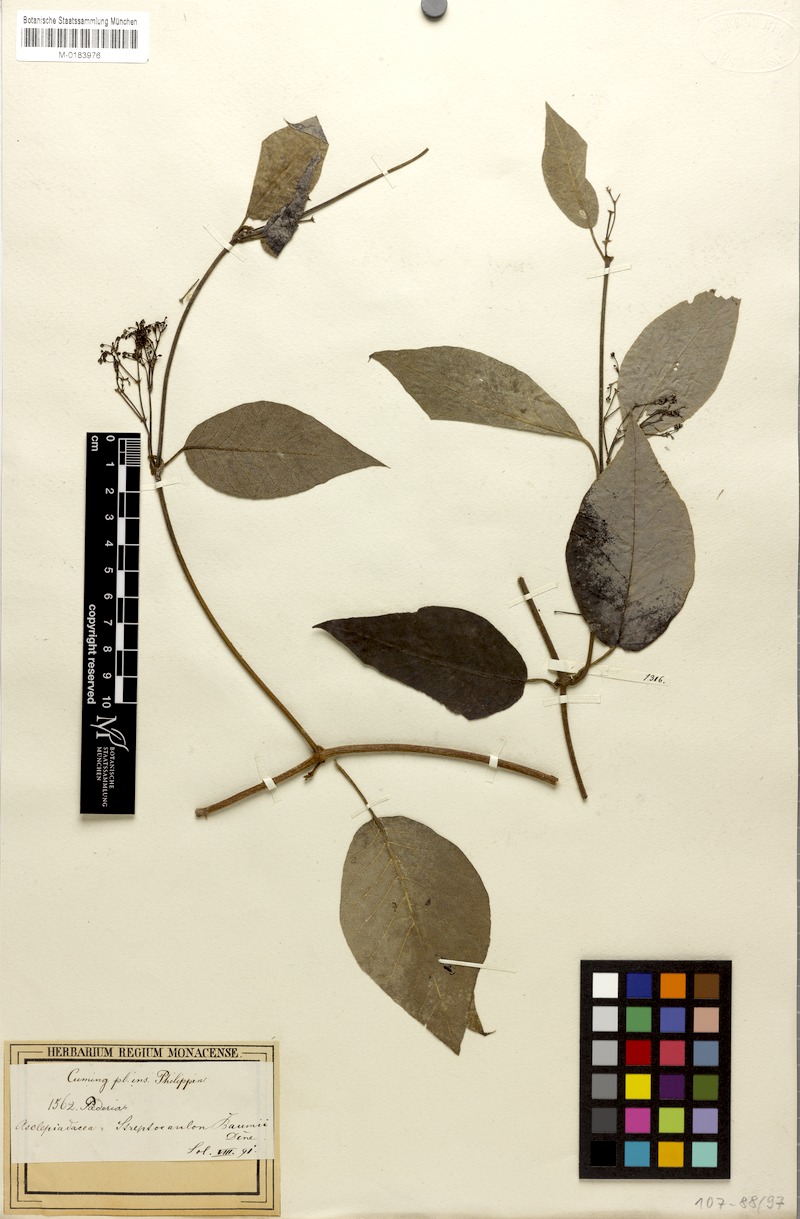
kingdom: Plantae
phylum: Tracheophyta
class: Magnoliopsida
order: Gentianales
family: Apocynaceae
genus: Streptocaulon
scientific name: Streptocaulon wallichii
